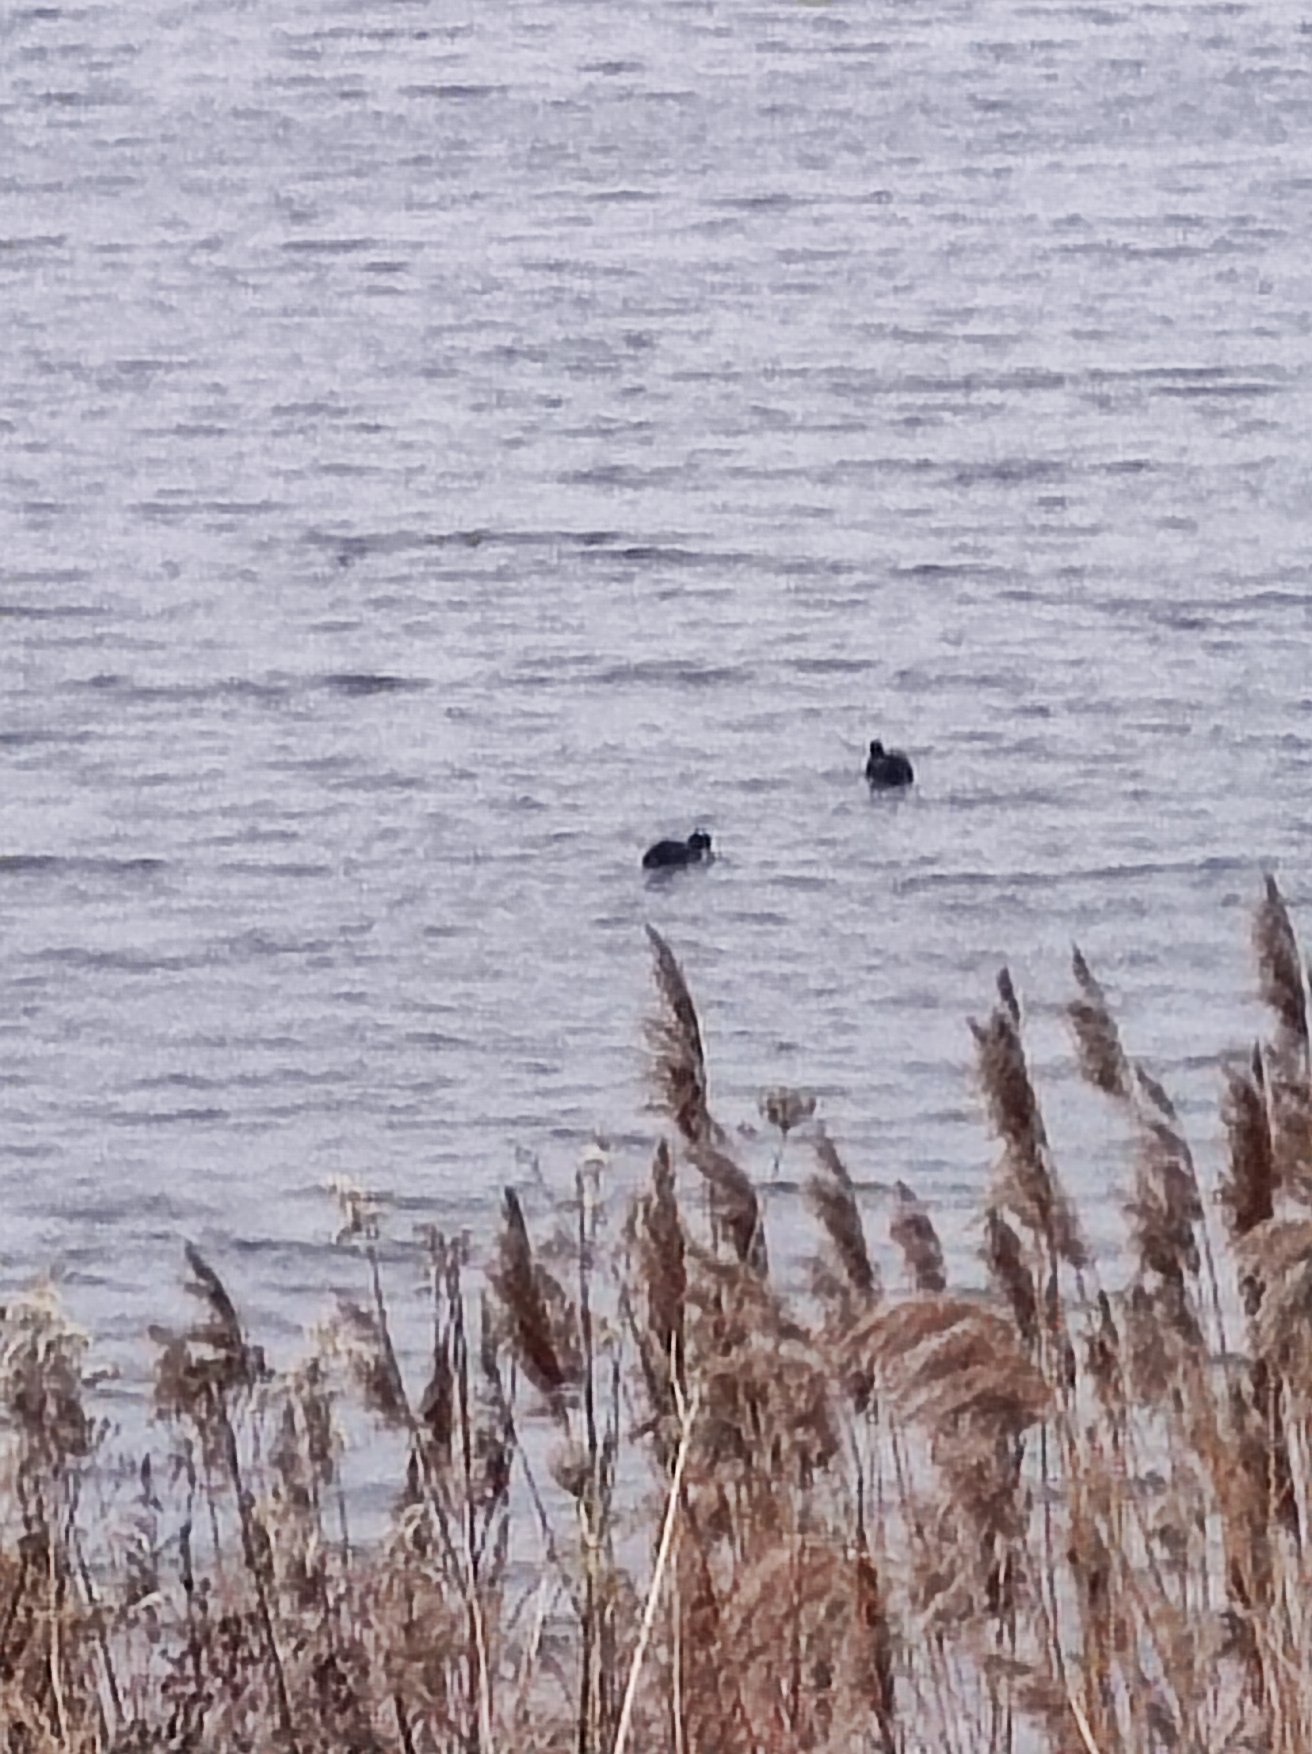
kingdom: Animalia
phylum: Chordata
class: Aves
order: Gruiformes
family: Rallidae
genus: Fulica
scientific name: Fulica atra
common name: Blishøne
